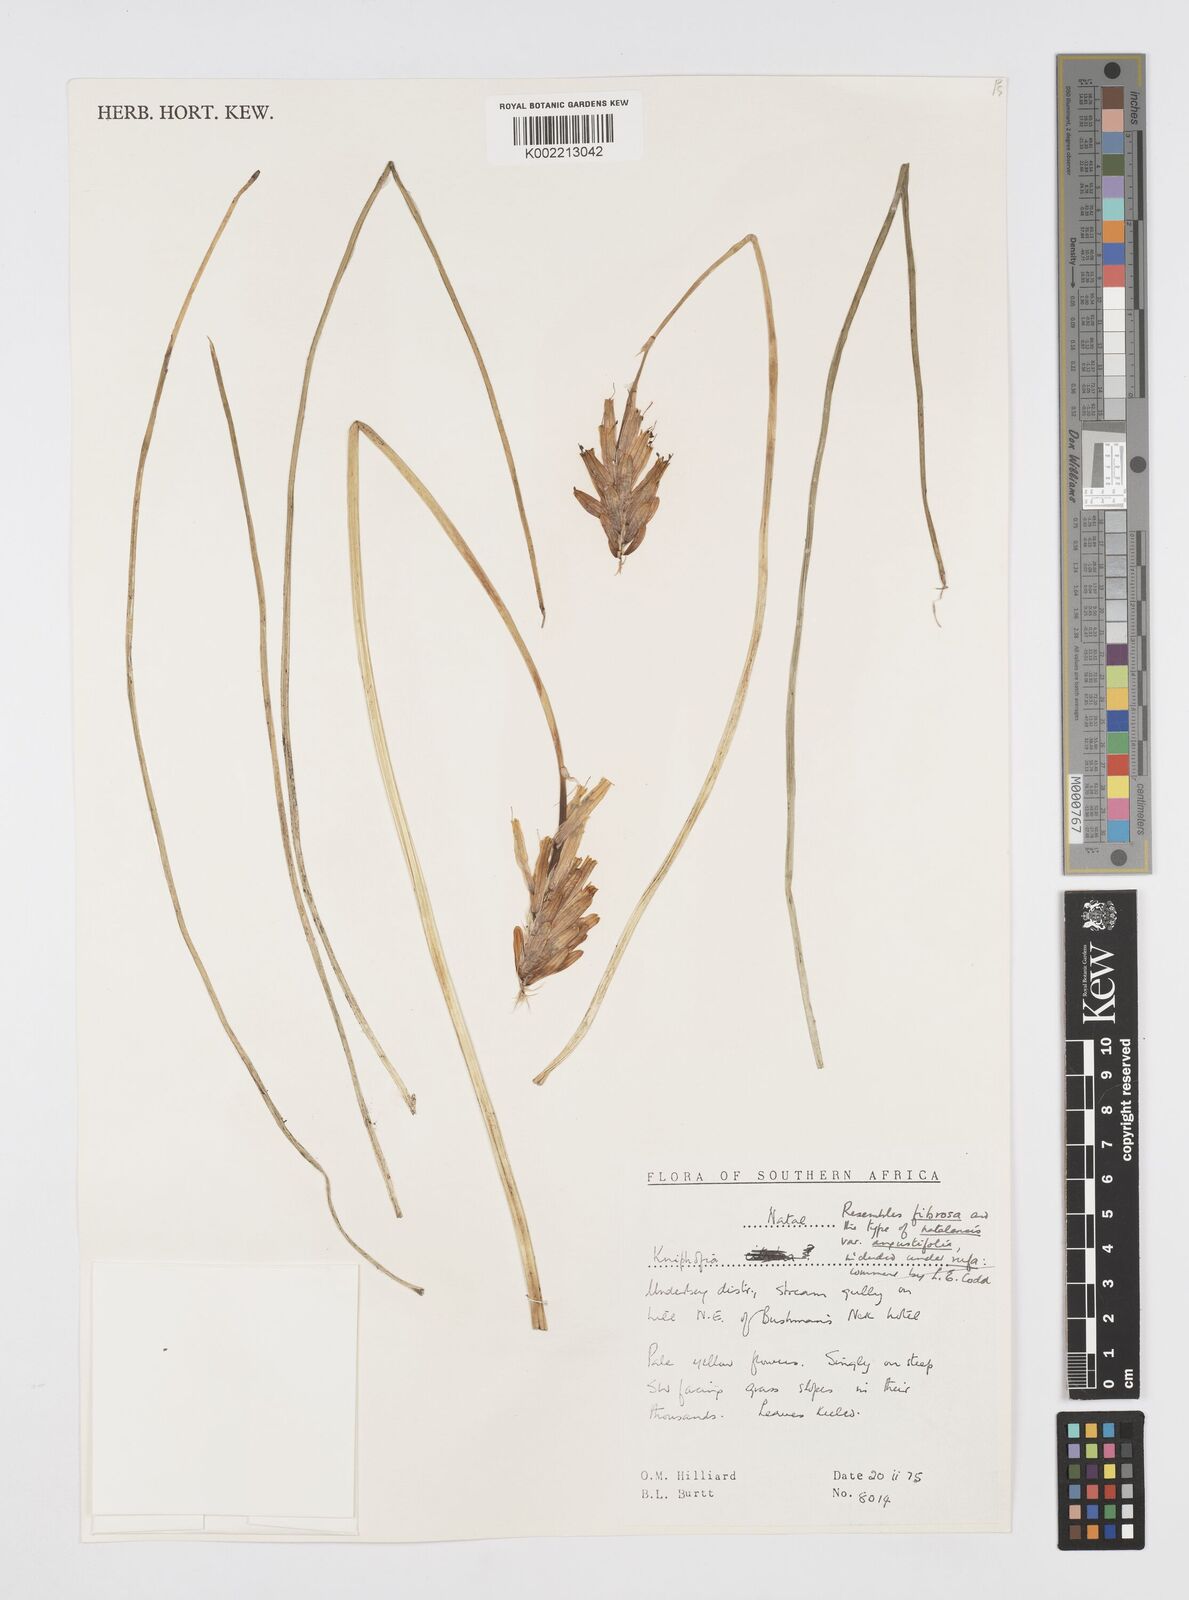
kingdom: Plantae
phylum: Tracheophyta
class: Liliopsida
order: Asparagales
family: Asphodelaceae
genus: Kniphofia
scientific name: Kniphofia
